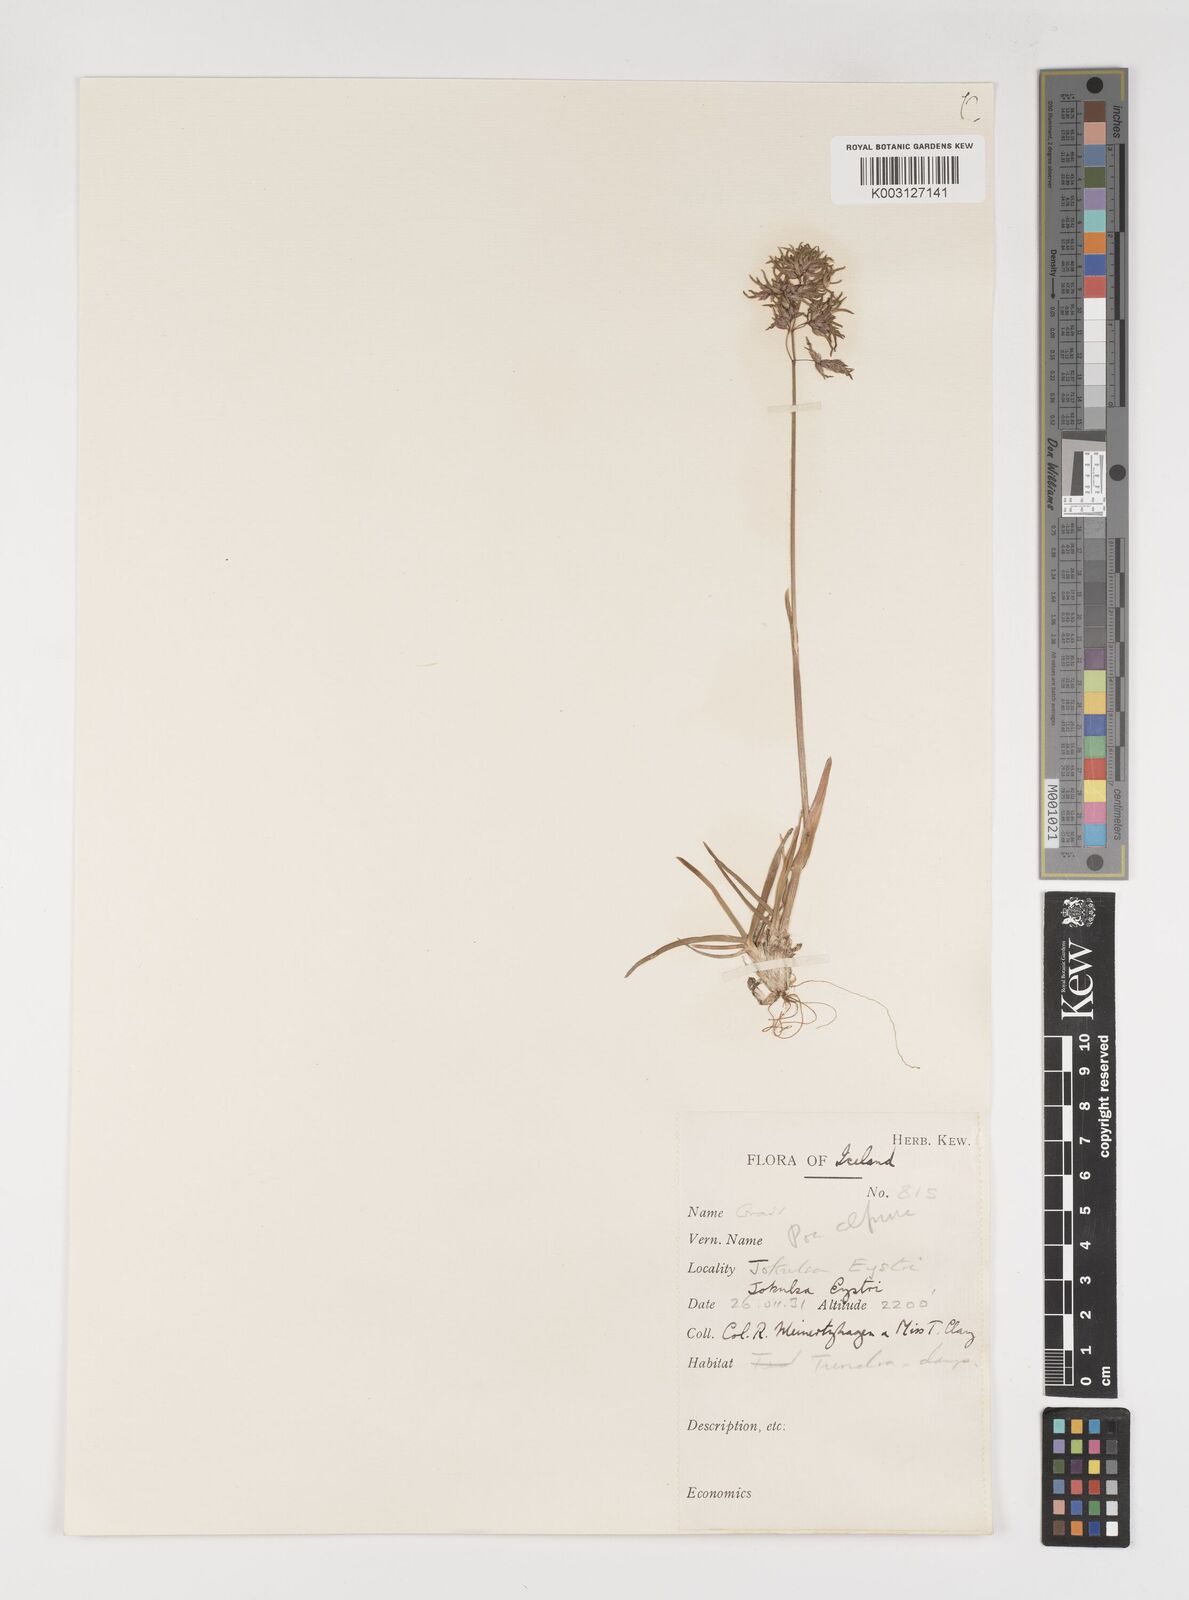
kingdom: Plantae
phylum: Tracheophyta
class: Liliopsida
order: Poales
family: Poaceae
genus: Poa
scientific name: Poa alpina
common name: Alpine bluegrass
